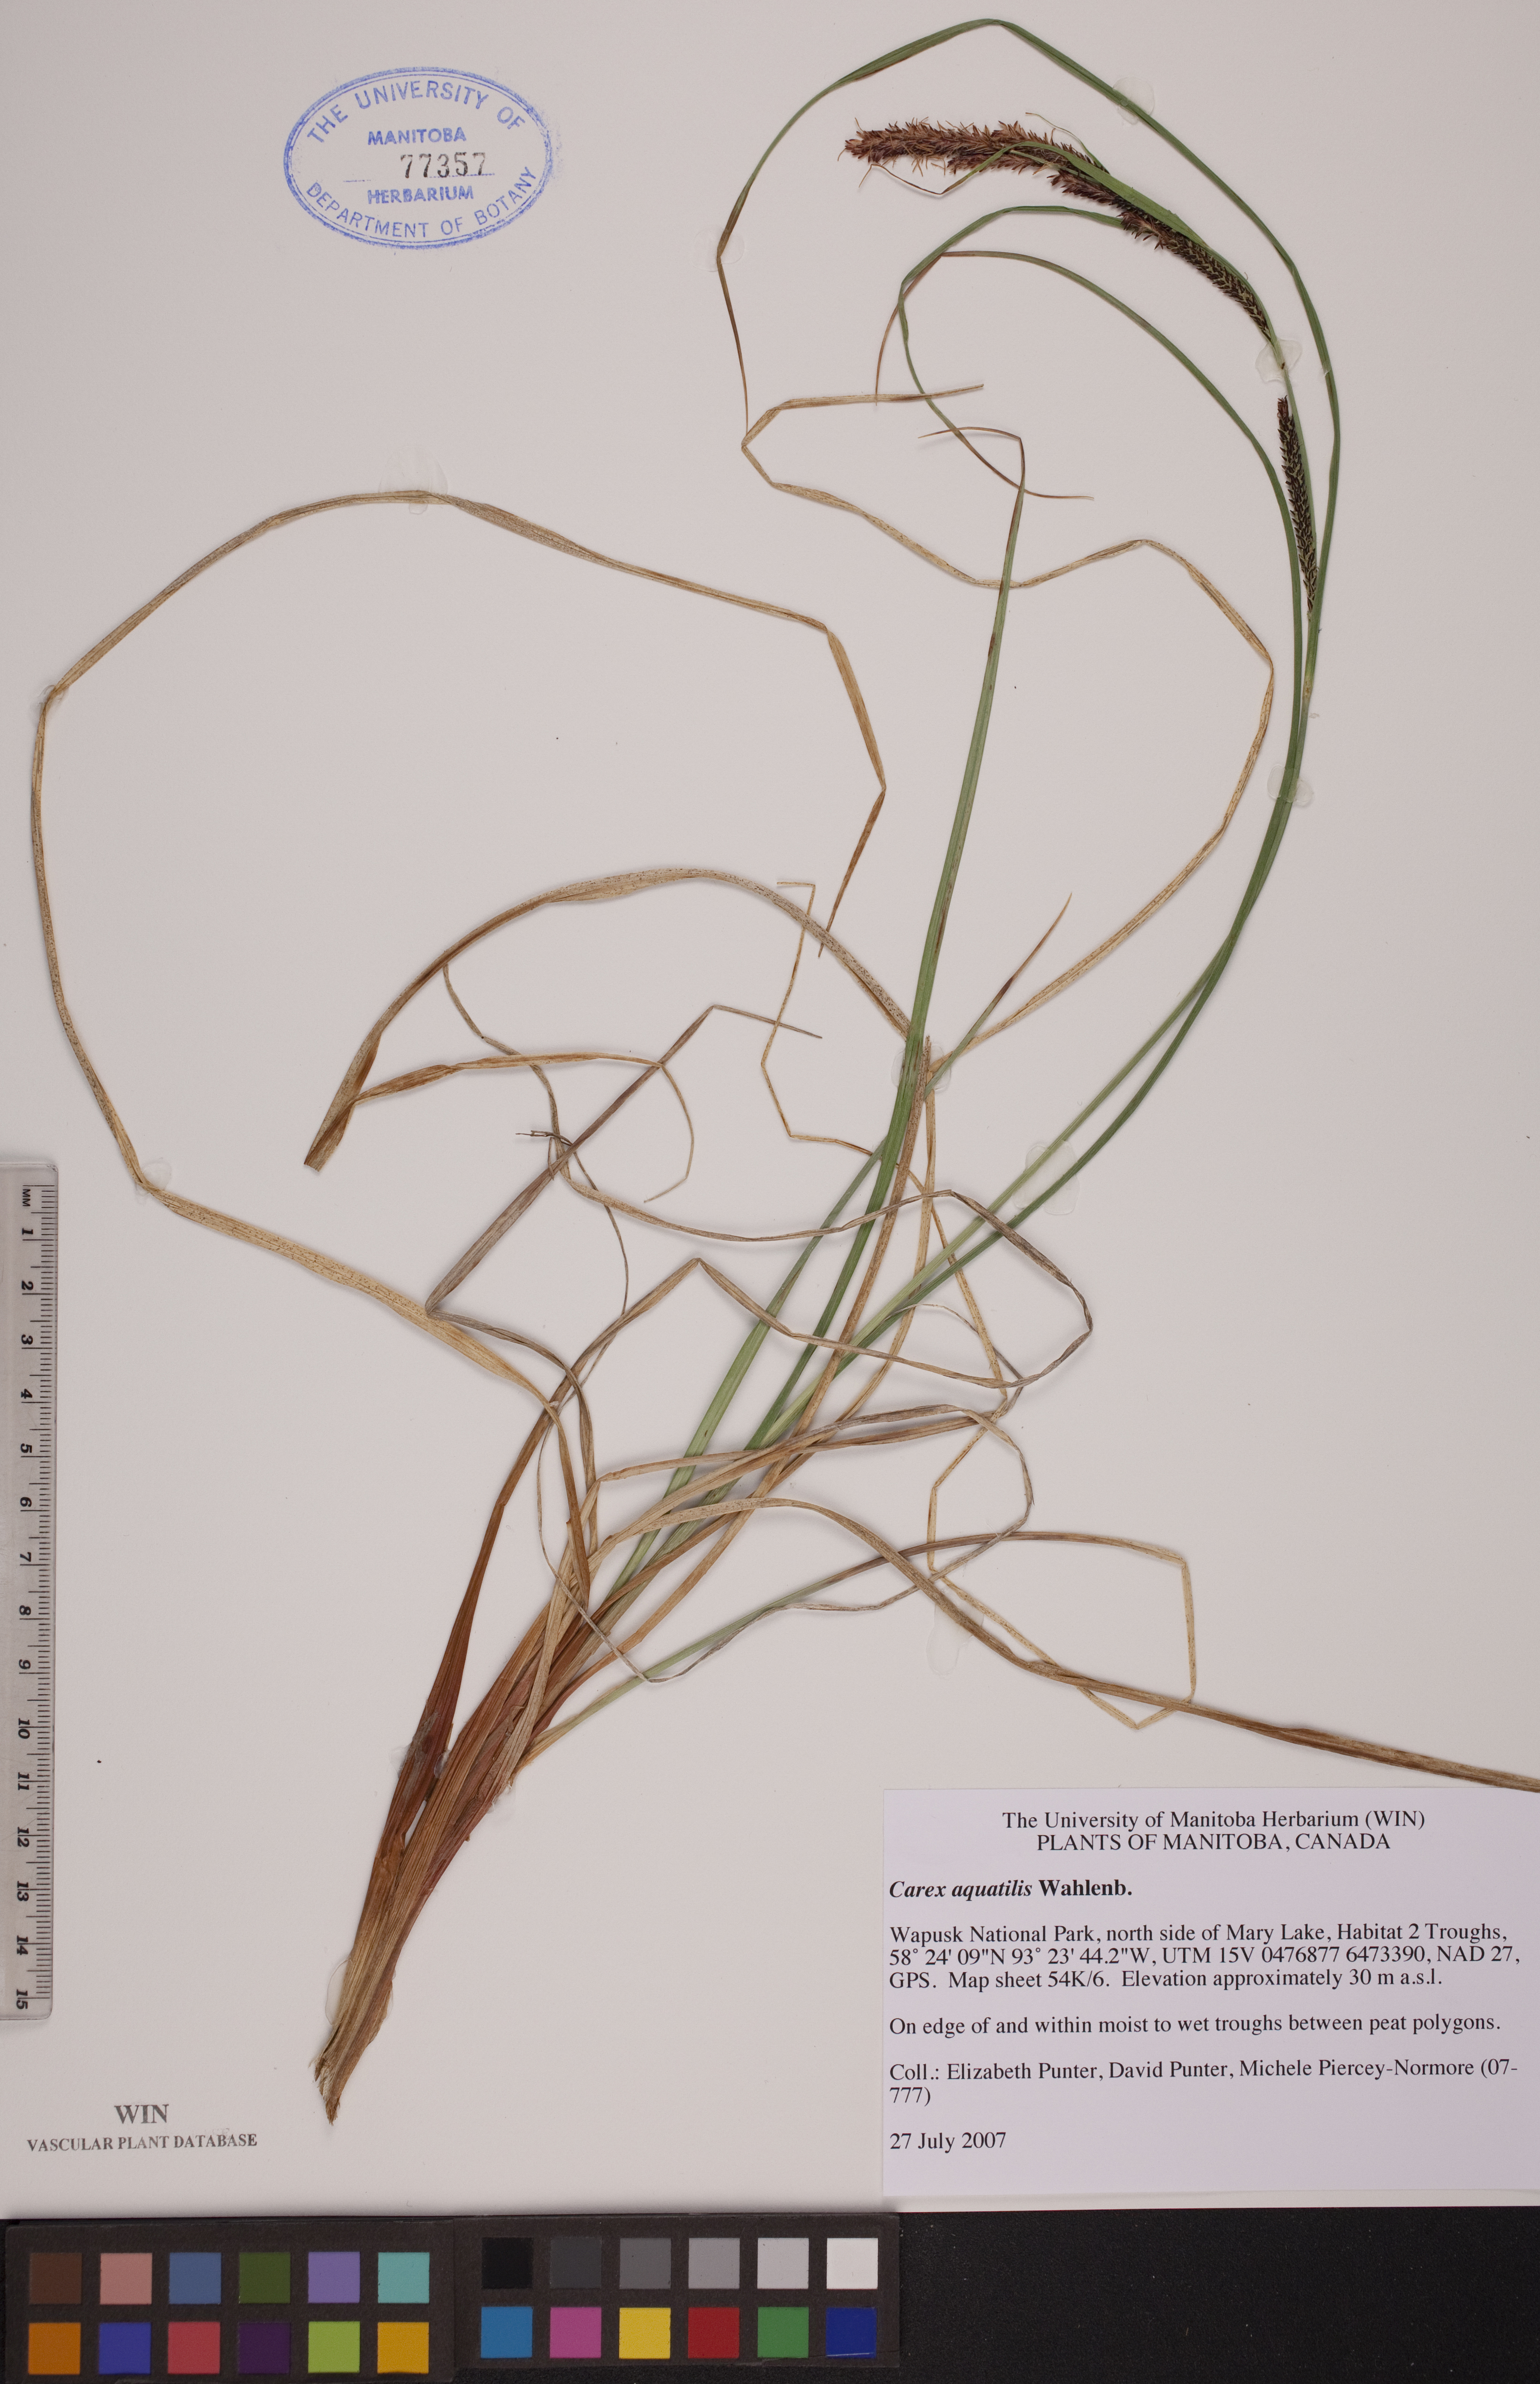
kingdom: Plantae
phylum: Tracheophyta
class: Liliopsida
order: Poales
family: Cyperaceae
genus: Carex
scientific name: Carex aquatilis
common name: Water sedge
